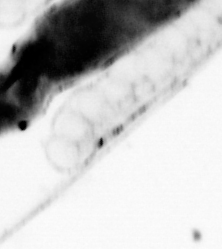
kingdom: Animalia
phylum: Chordata
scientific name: Chordata
